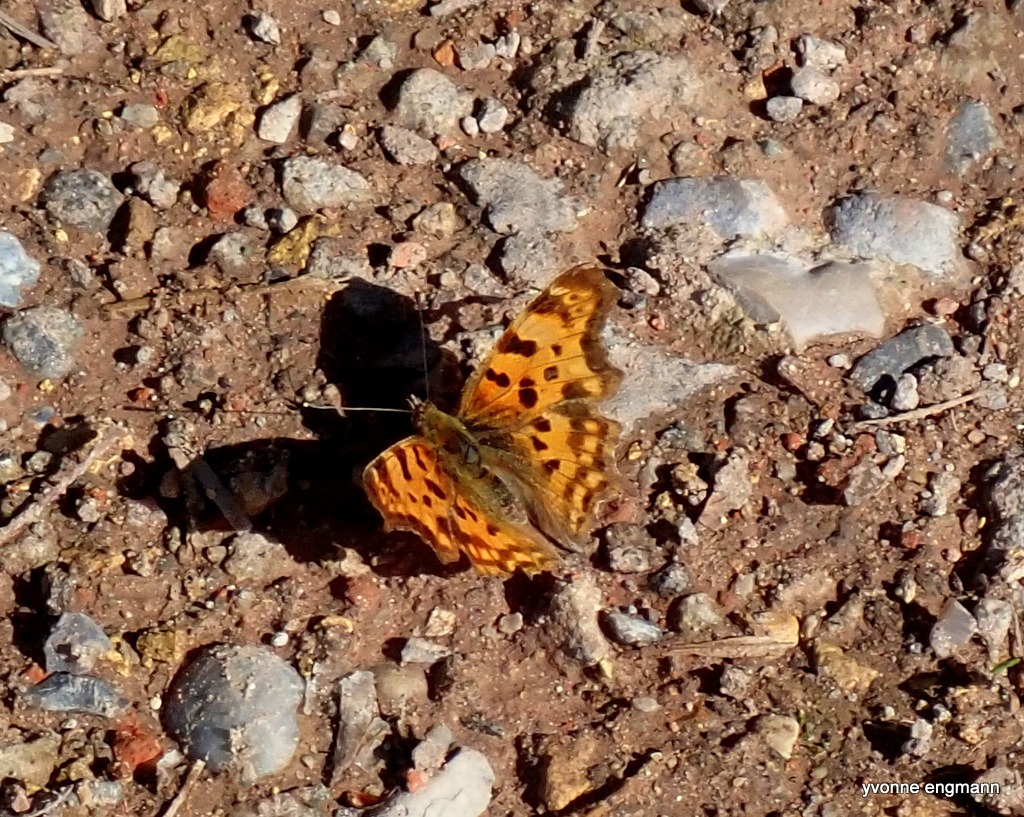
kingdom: Animalia
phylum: Arthropoda
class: Insecta
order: Lepidoptera
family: Nymphalidae
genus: Polygonia
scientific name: Polygonia c-album
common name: Det hvide C
